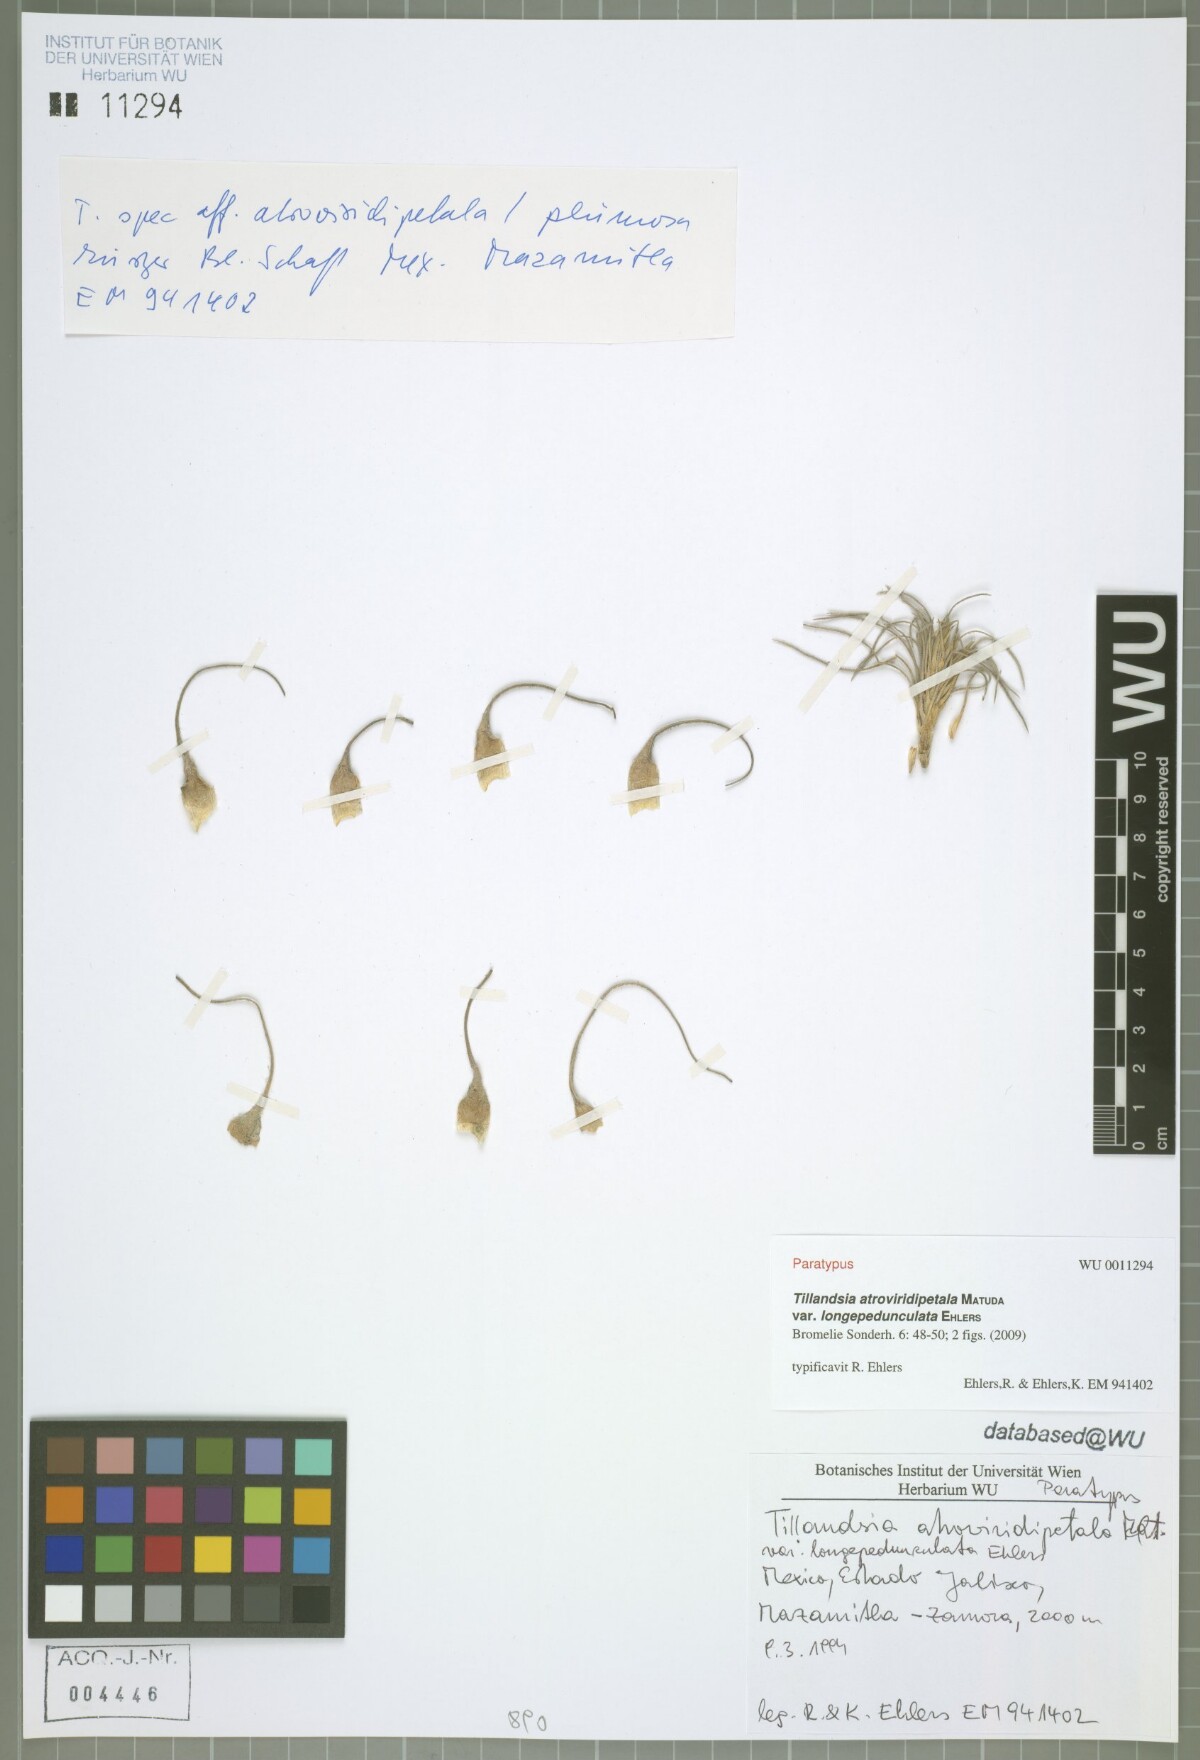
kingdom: Plantae
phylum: Tracheophyta
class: Liliopsida
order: Poales
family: Bromeliaceae
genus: Tillandsia
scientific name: Tillandsia atroviridipetala
